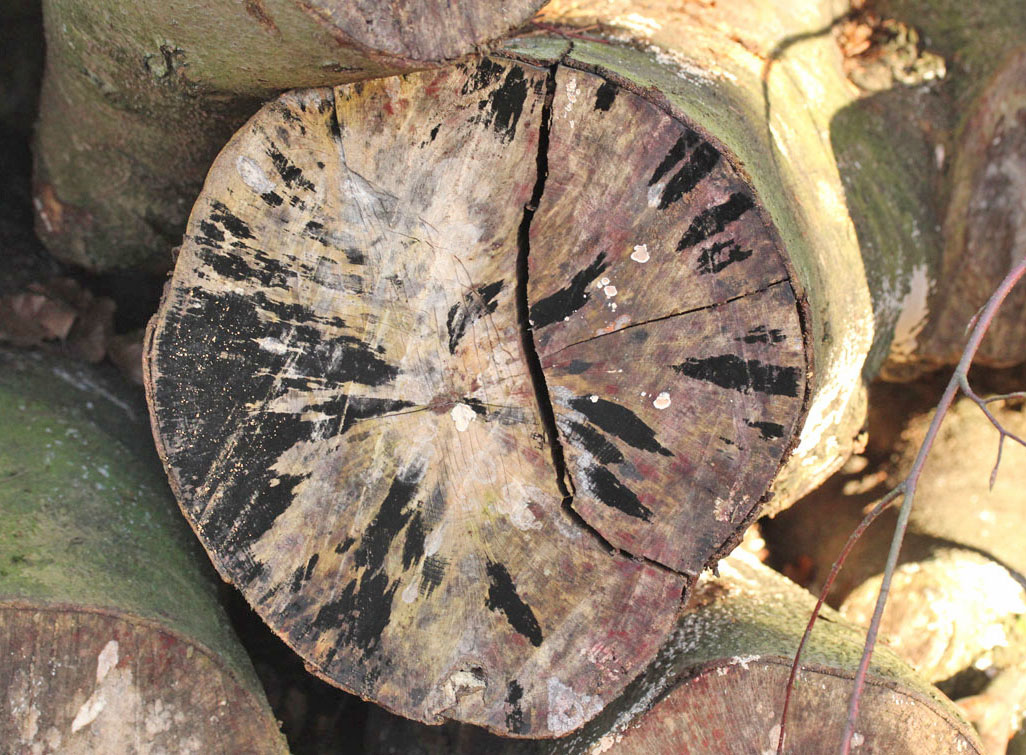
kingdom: Fungi
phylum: Ascomycota
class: Leotiomycetes
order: Helotiales
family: Helotiaceae
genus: Bispora
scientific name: Bispora pallescens
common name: måtte-snitskive
